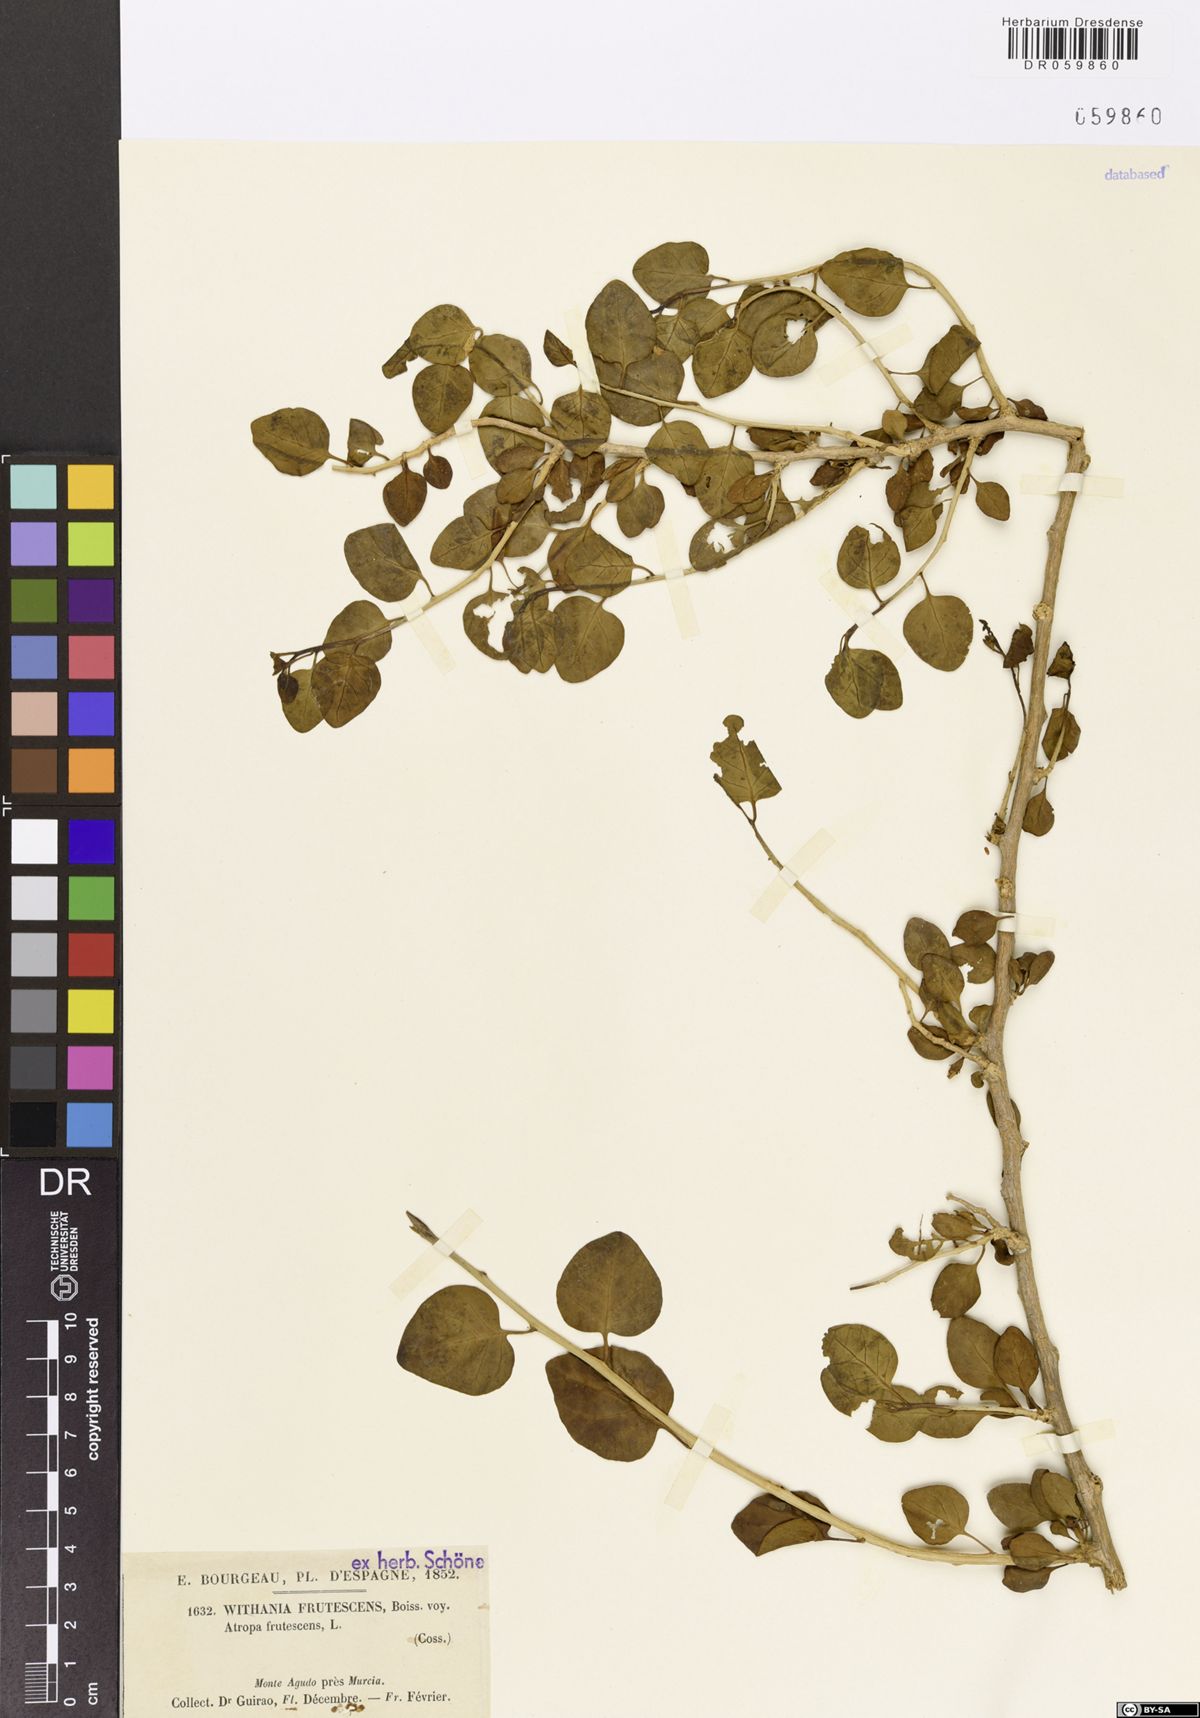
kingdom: Plantae
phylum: Tracheophyta
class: Magnoliopsida
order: Solanales
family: Solanaceae
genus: Withania
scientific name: Withania frutescens
